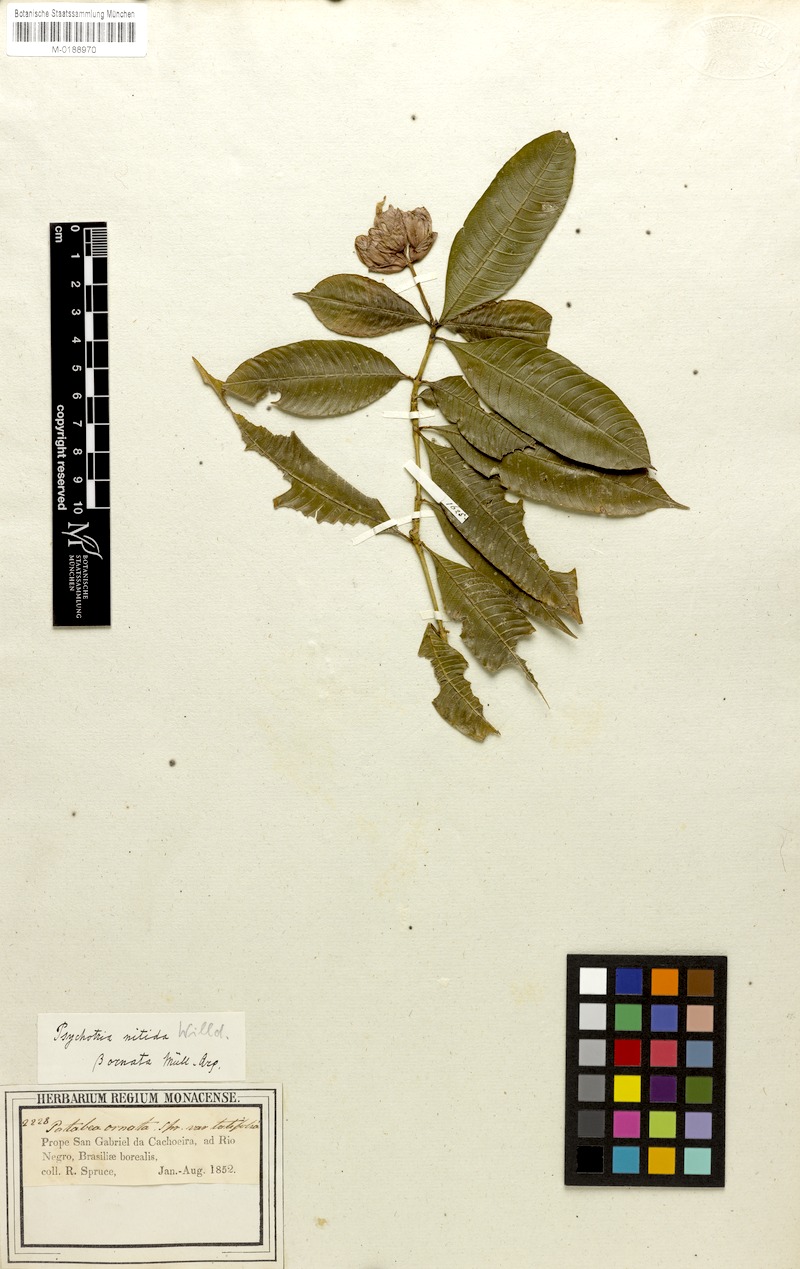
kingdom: Plantae
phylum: Tracheophyta
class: Magnoliopsida
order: Gentianales
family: Rubiaceae
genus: Palicourea
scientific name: Palicourea humboldtiana
